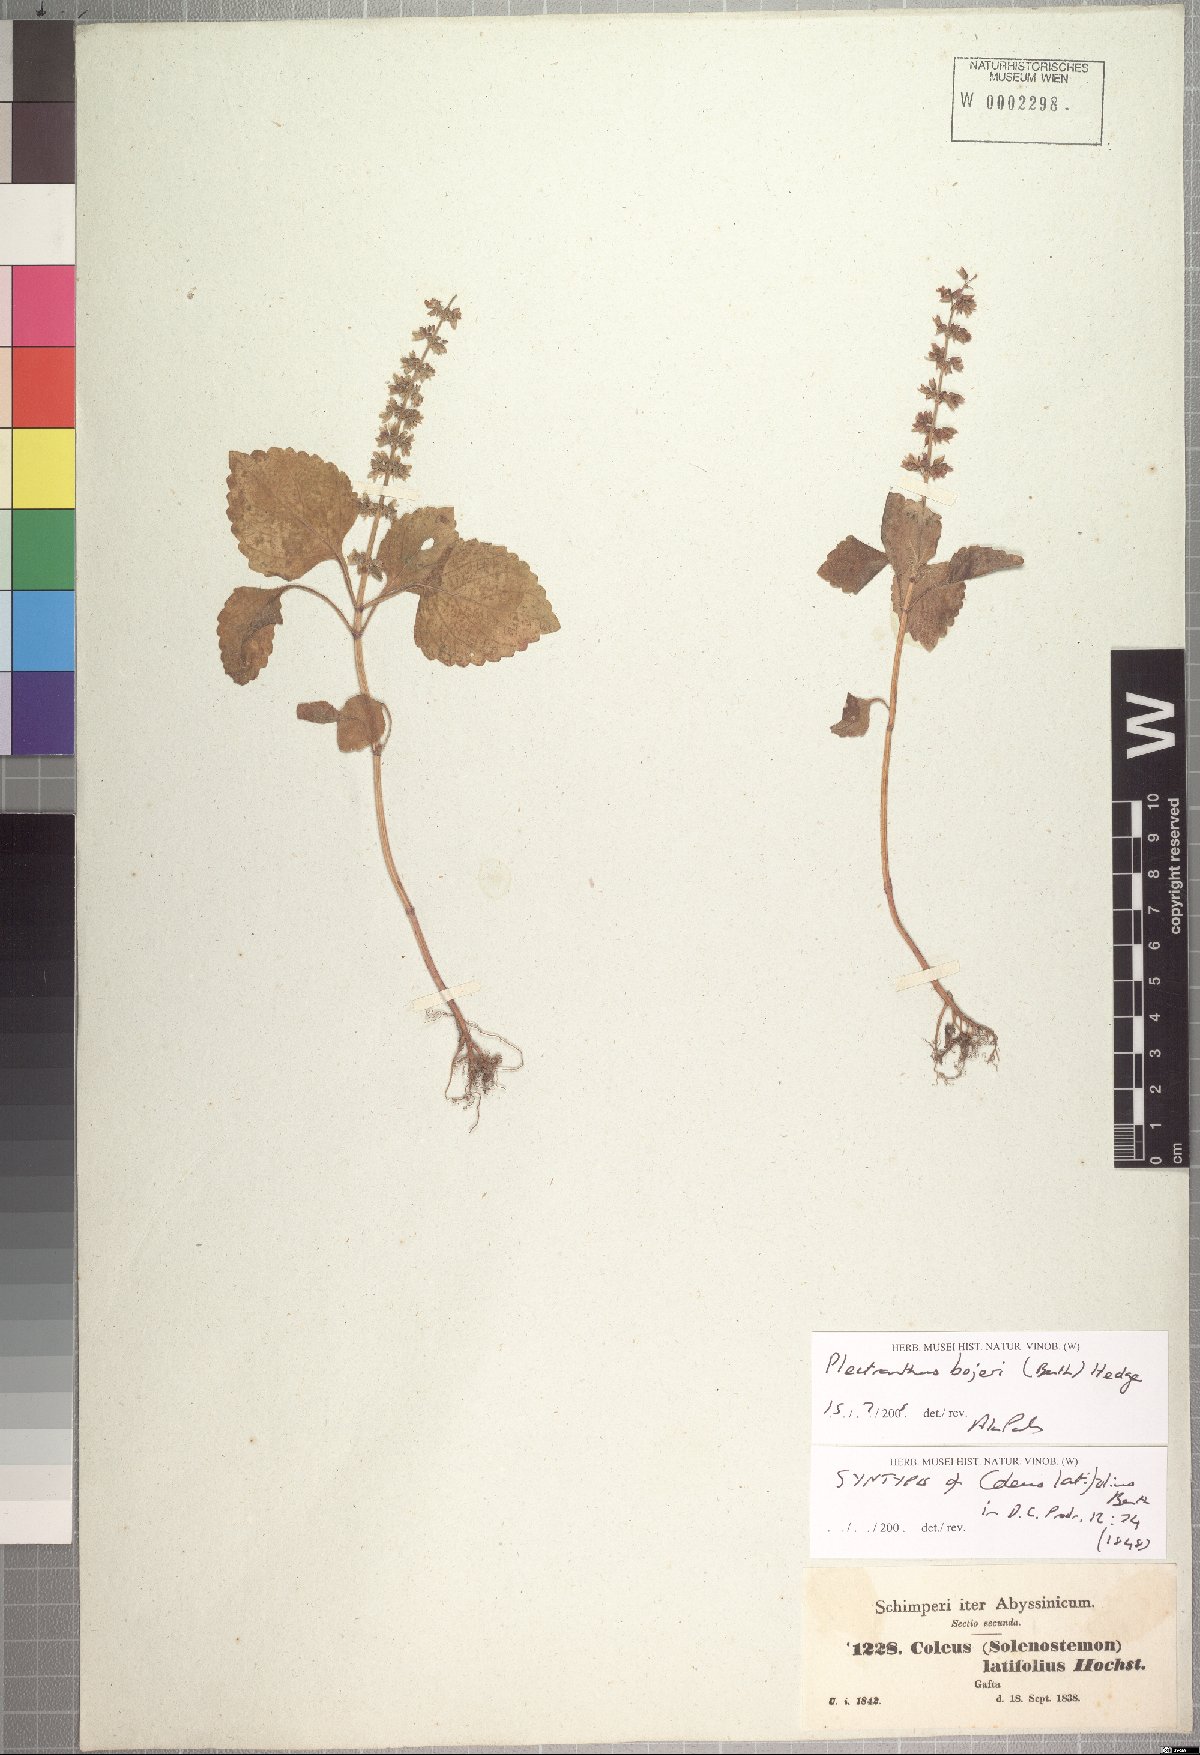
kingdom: Plantae
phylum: Tracheophyta
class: Magnoliopsida
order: Lamiales
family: Lamiaceae
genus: Coleus
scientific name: Coleus bojeri
